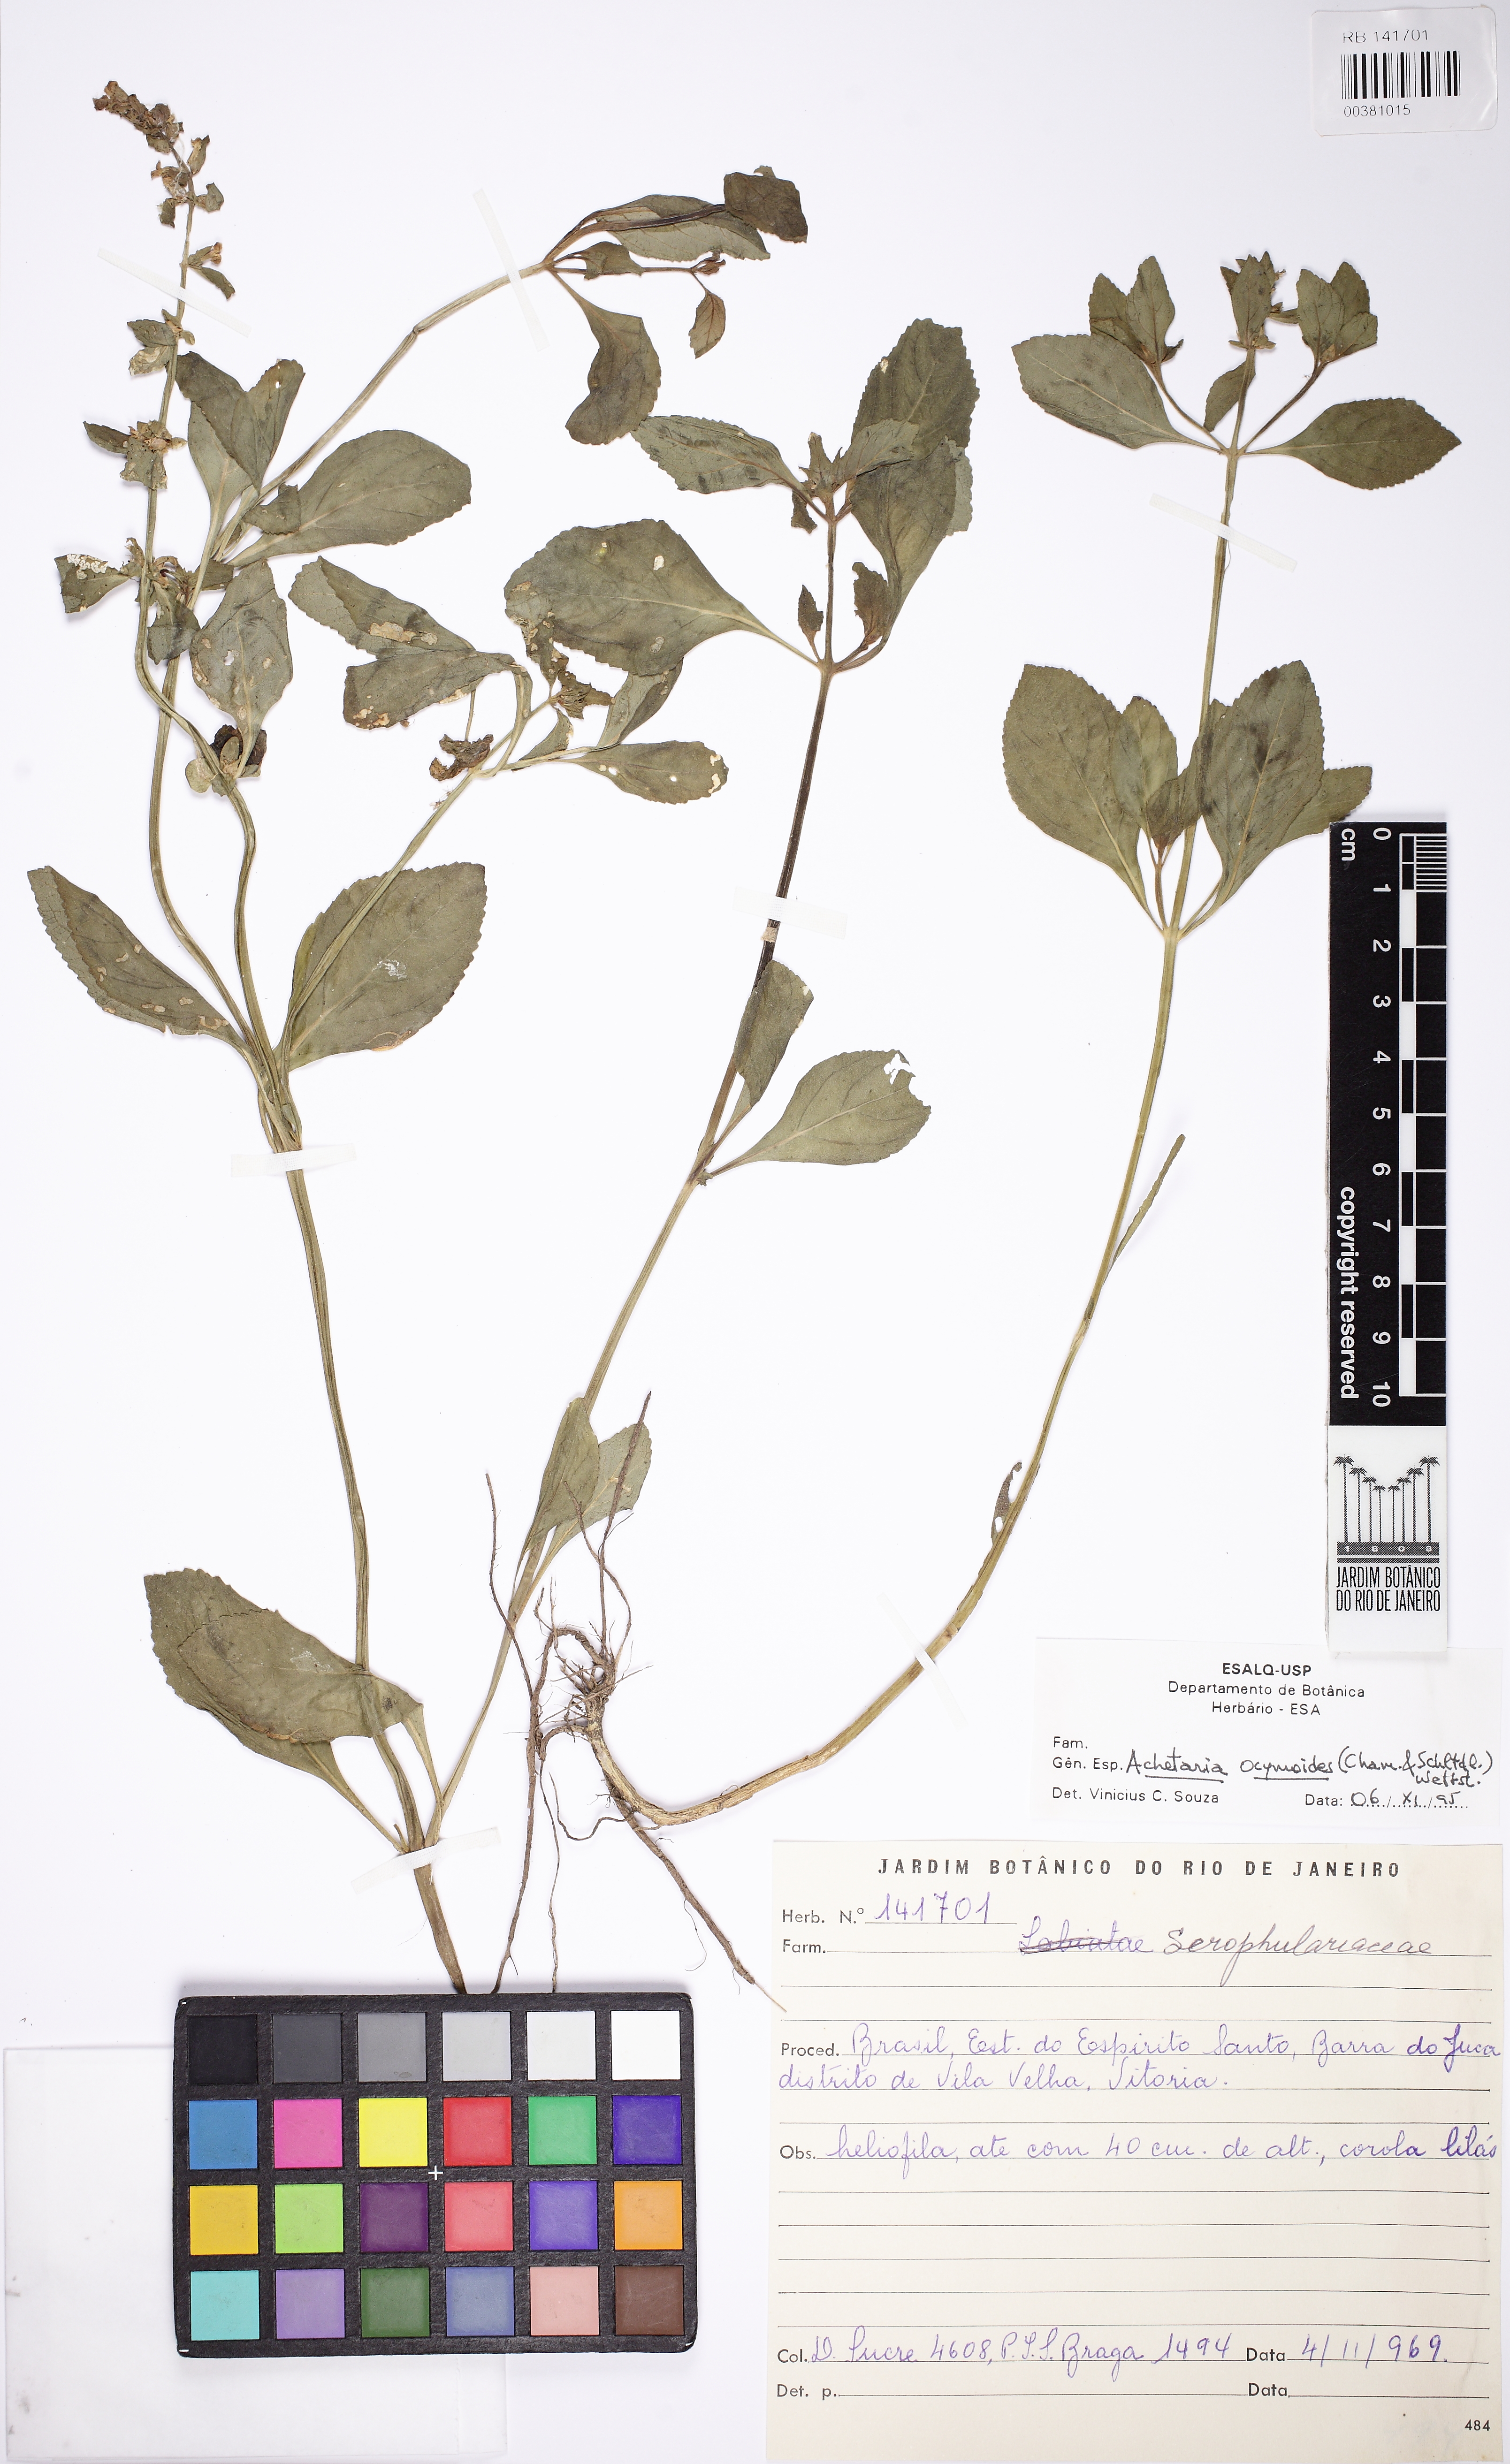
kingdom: Plantae
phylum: Tracheophyta
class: Magnoliopsida
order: Lamiales
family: Plantaginaceae
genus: Matourea
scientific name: Matourea ocymoides
